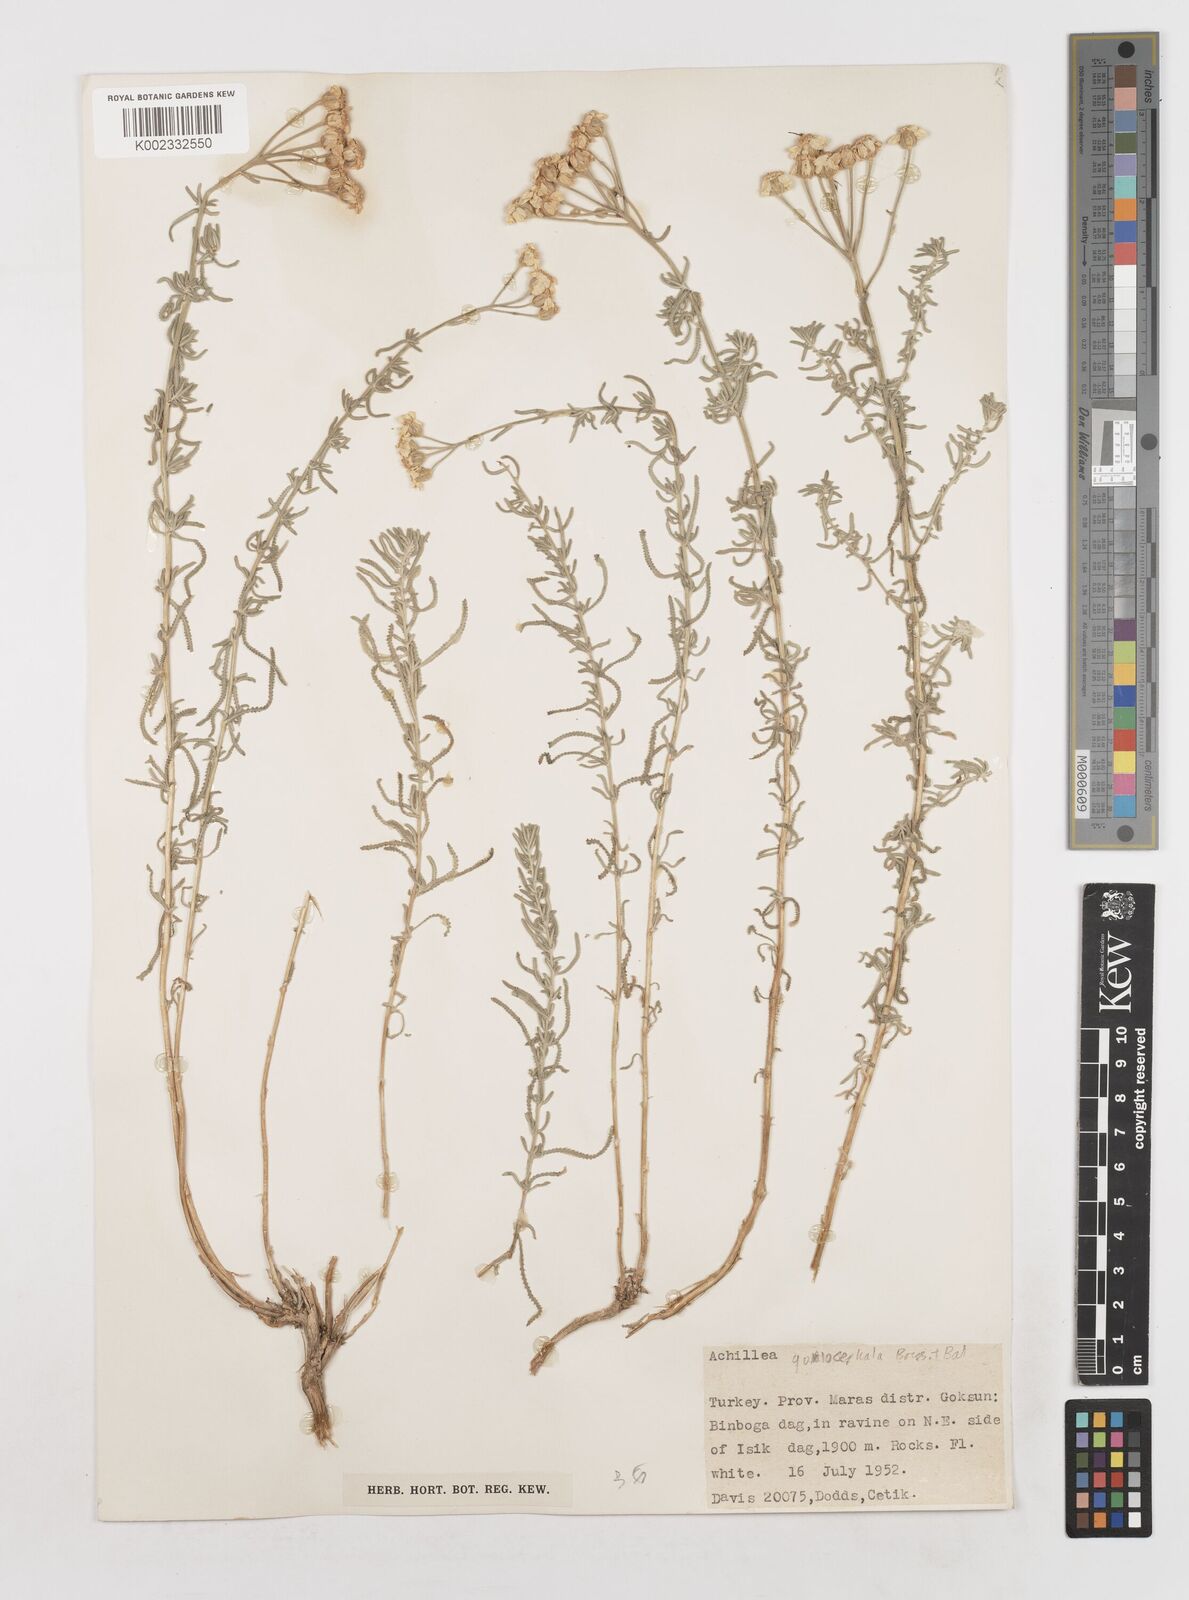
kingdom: Plantae
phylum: Tracheophyta
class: Magnoliopsida
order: Asterales
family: Asteraceae
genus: Achillea
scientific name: Achillea goniocephala
